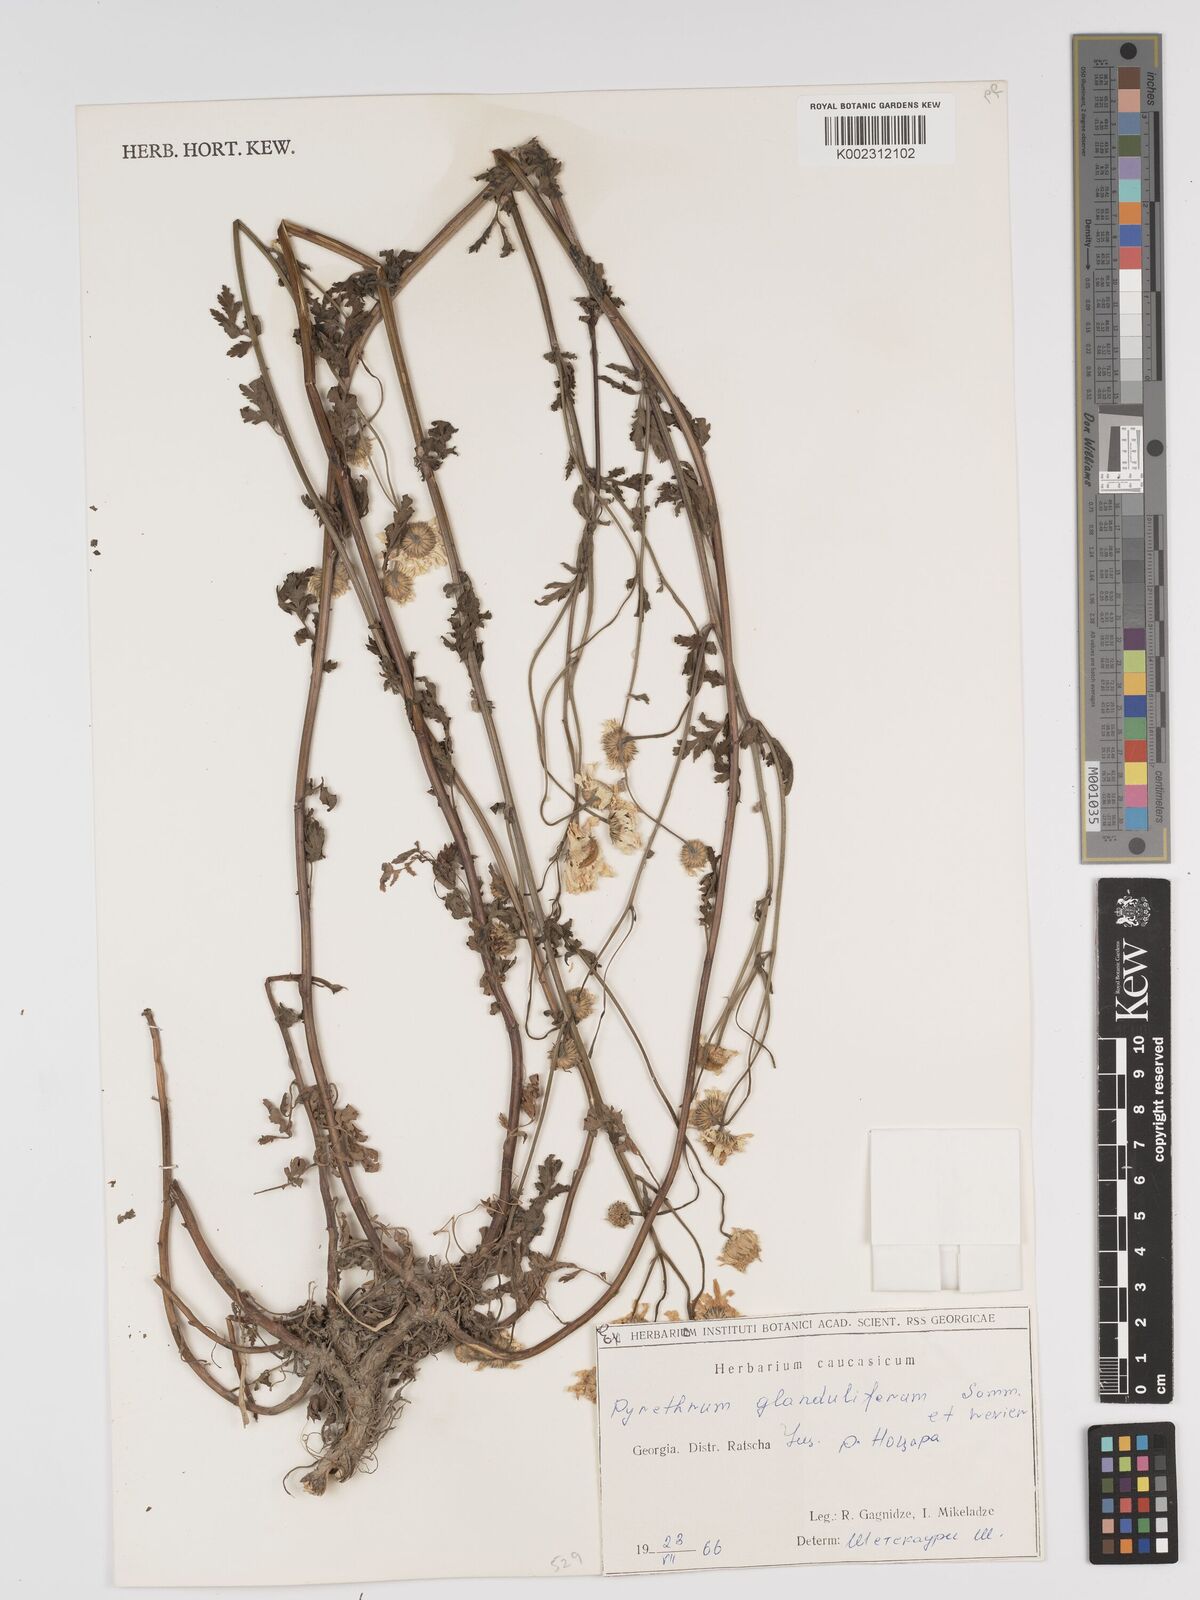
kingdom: Plantae
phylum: Tracheophyta
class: Magnoliopsida
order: Asterales
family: Asteraceae
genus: Tanacetum
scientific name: Tanacetum parthenium
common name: Feverfew
